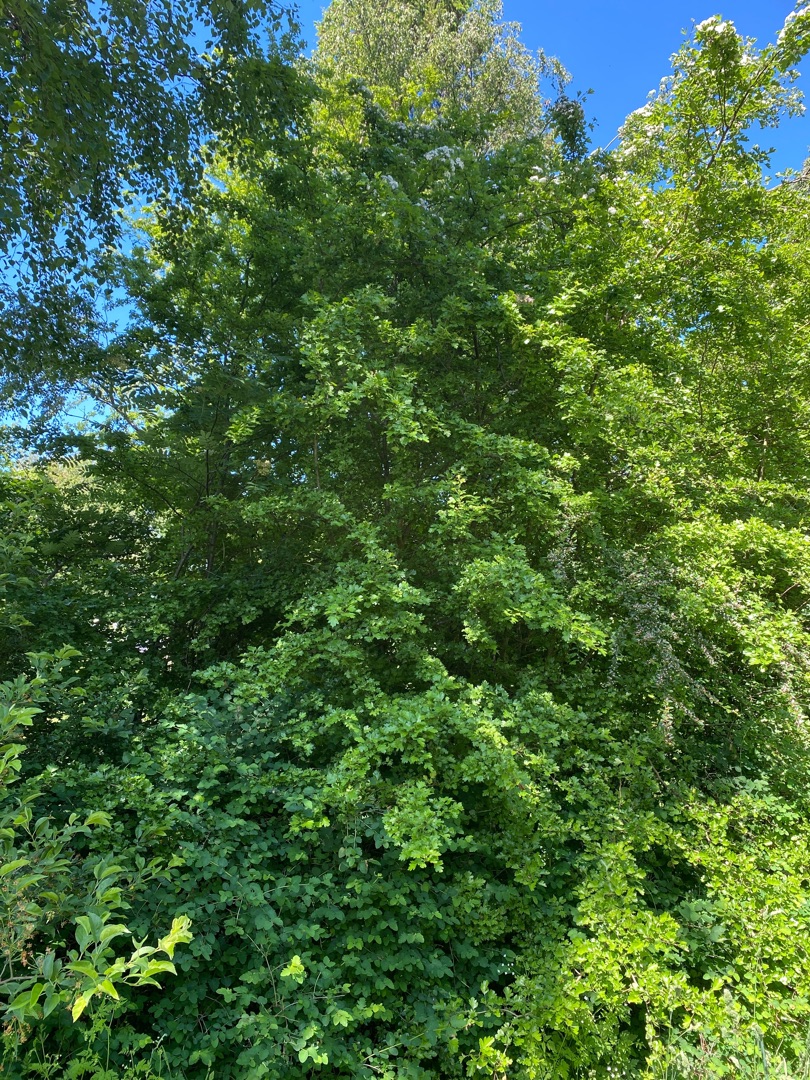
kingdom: Plantae
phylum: Tracheophyta
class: Magnoliopsida
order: Rosales
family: Rosaceae
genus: Crataegus
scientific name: Crataegus monogyna
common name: Engriflet hvidtjørn
